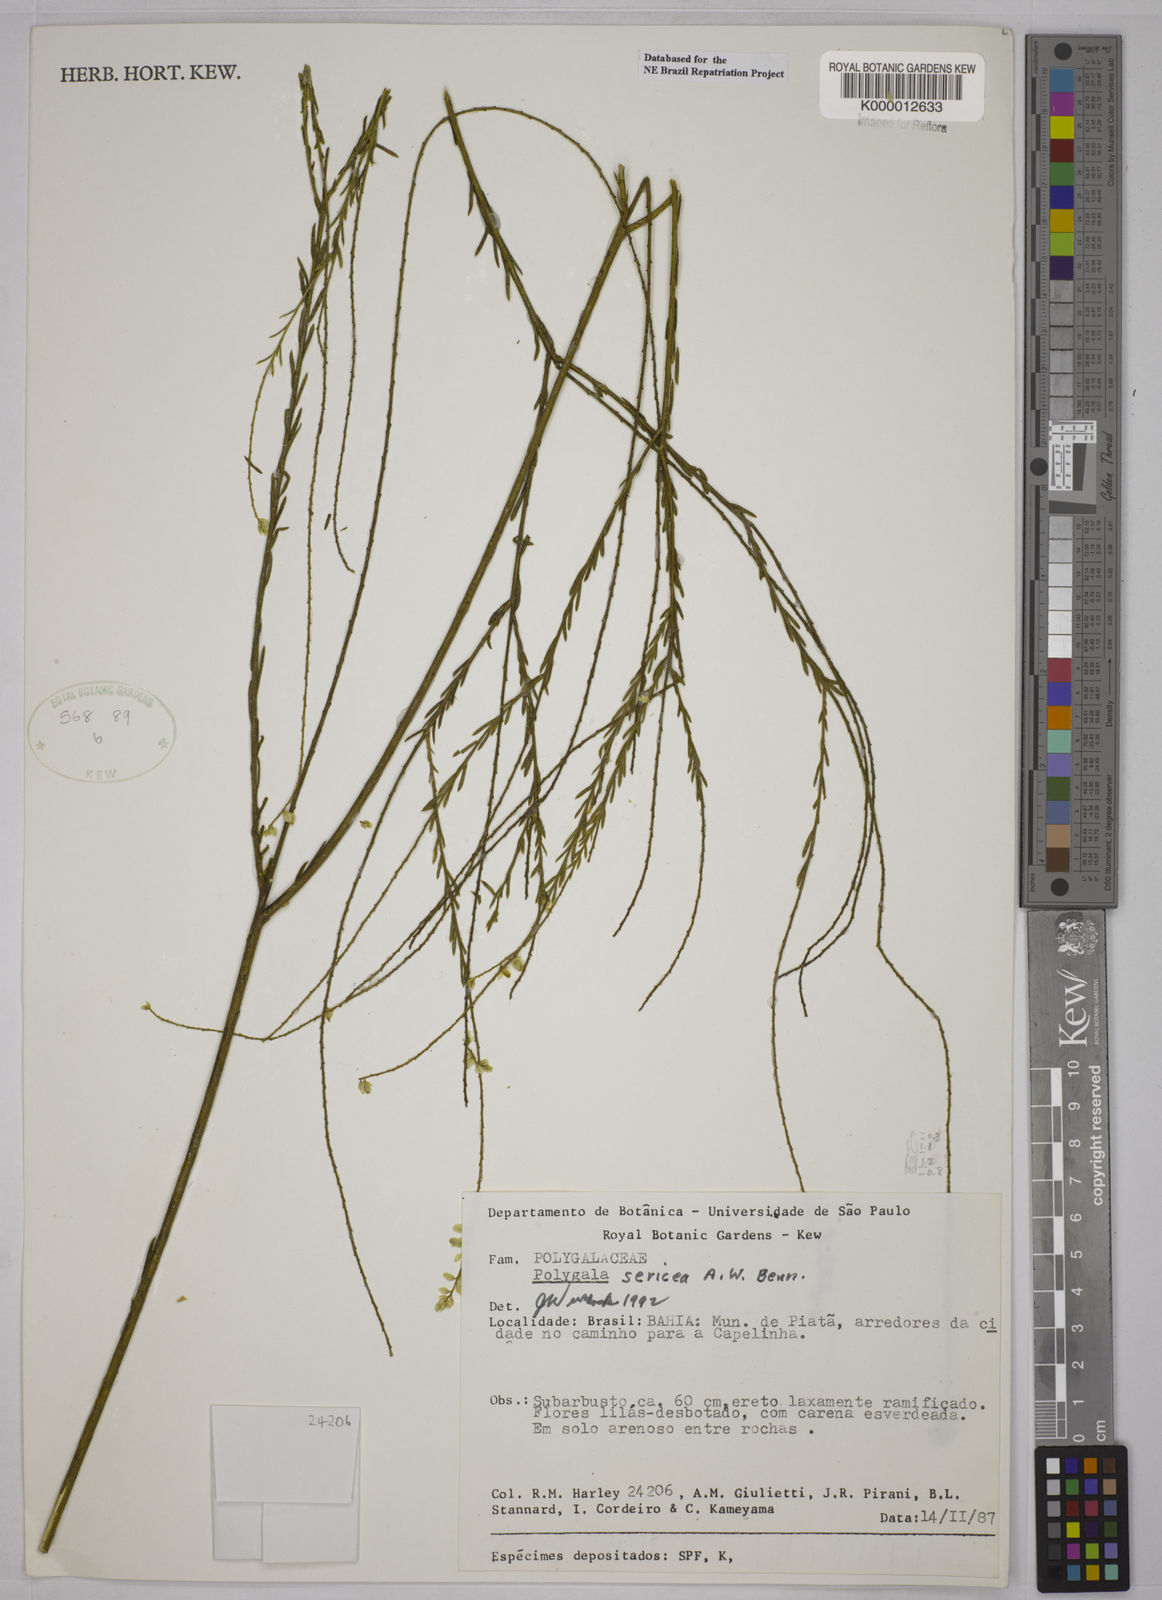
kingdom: Plantae
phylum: Tracheophyta
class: Magnoliopsida
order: Fabales
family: Polygalaceae
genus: Polygala
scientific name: Polygala sericea
